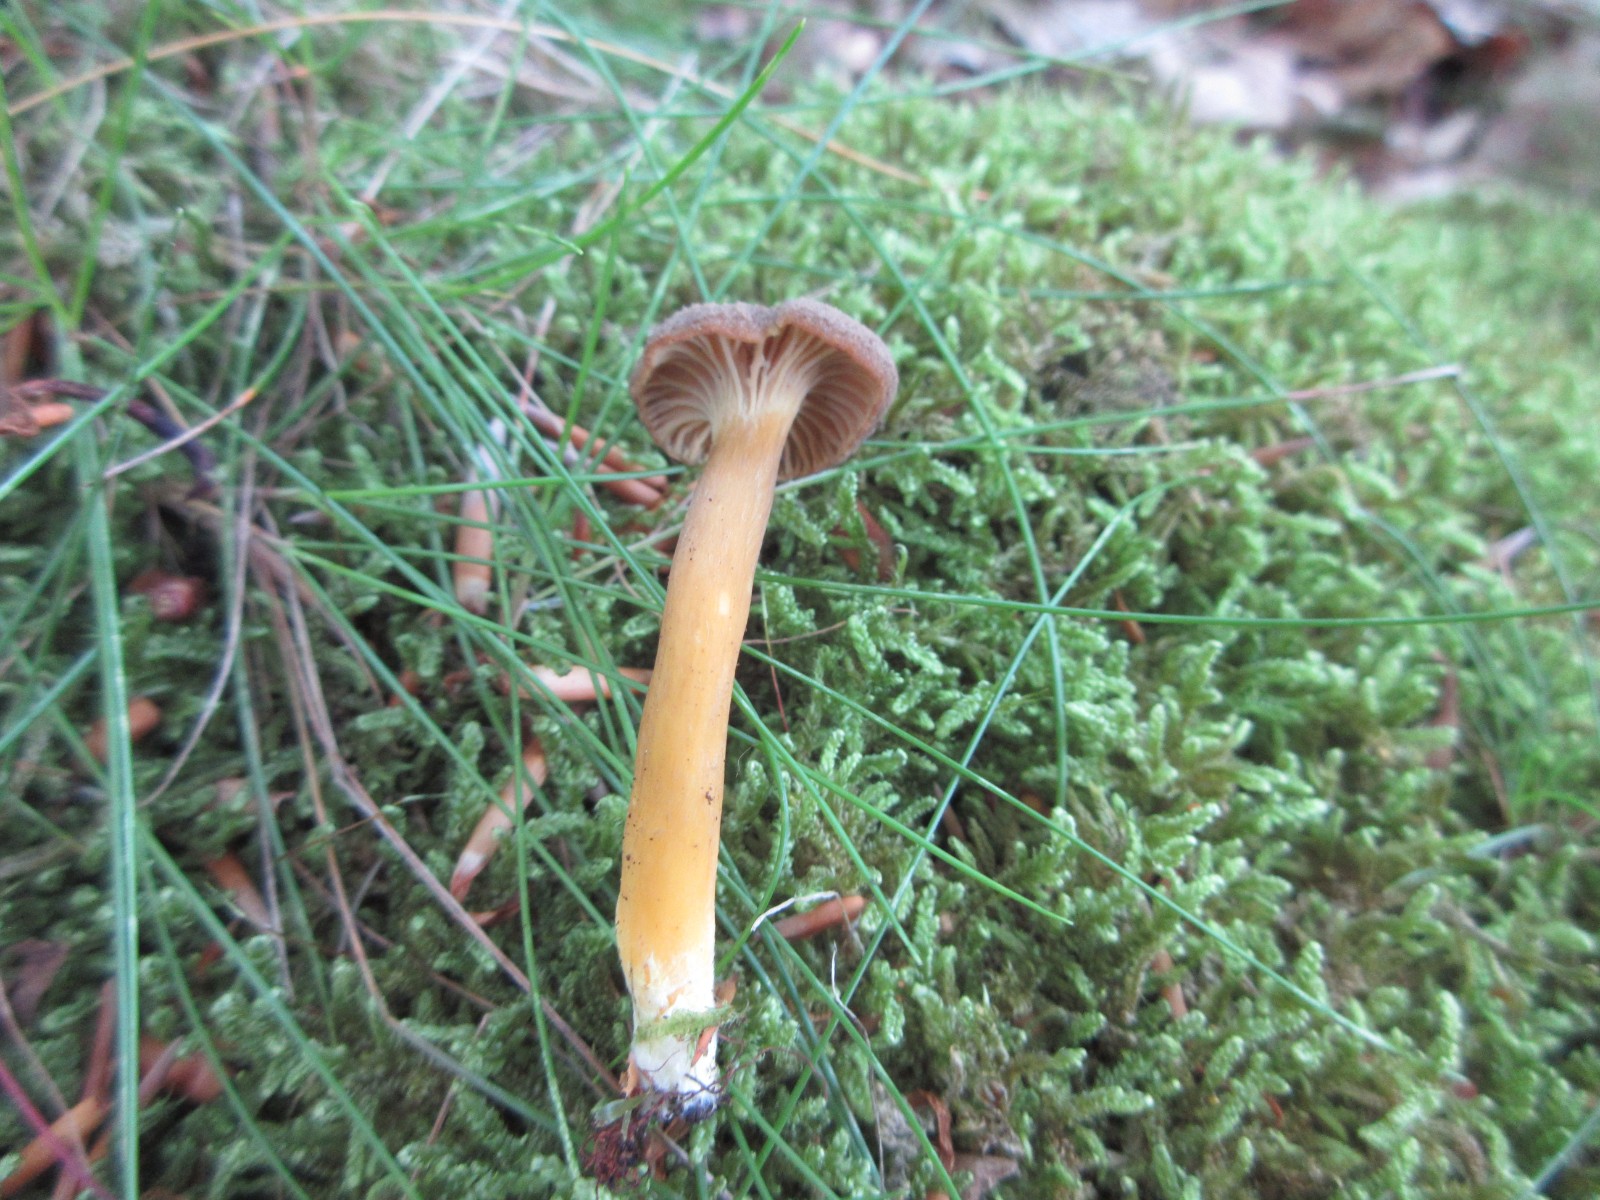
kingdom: Fungi
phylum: Basidiomycota
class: Agaricomycetes
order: Cantharellales
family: Hydnaceae
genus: Craterellus
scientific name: Craterellus tubaeformis
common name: tragt-kantarel
